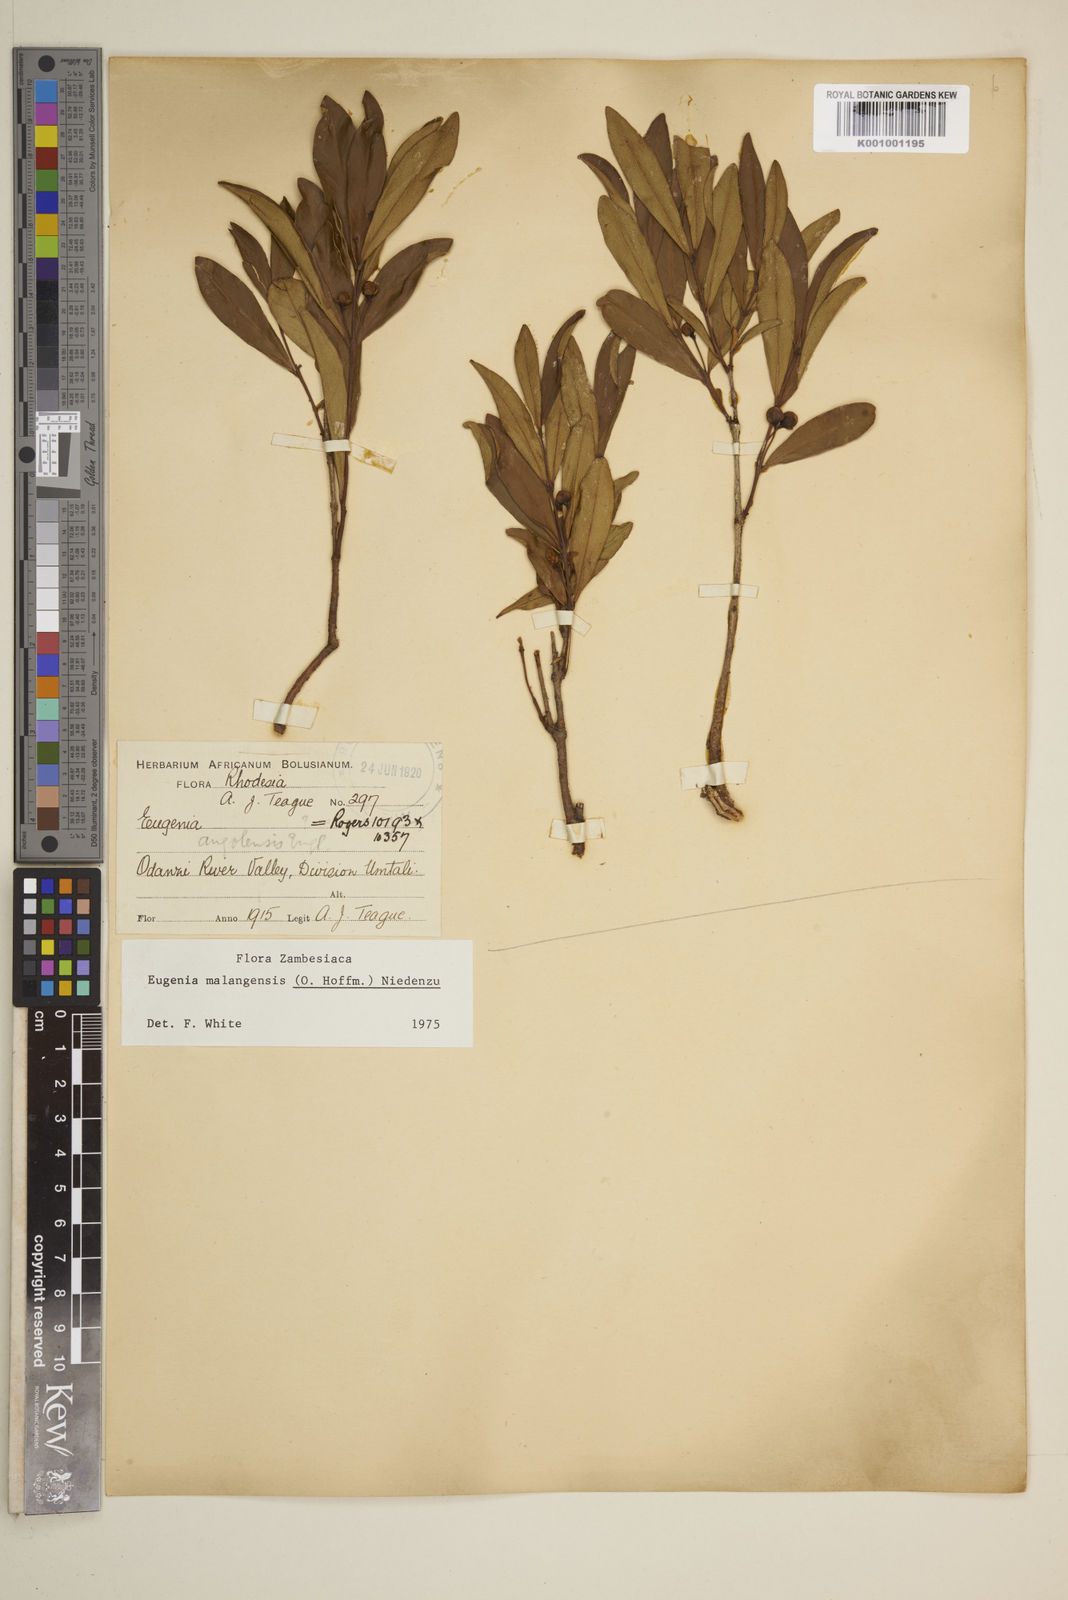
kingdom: Plantae
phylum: Tracheophyta
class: Magnoliopsida
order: Myrtales
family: Myrtaceae
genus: Eugenia
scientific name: Eugenia malangensis
